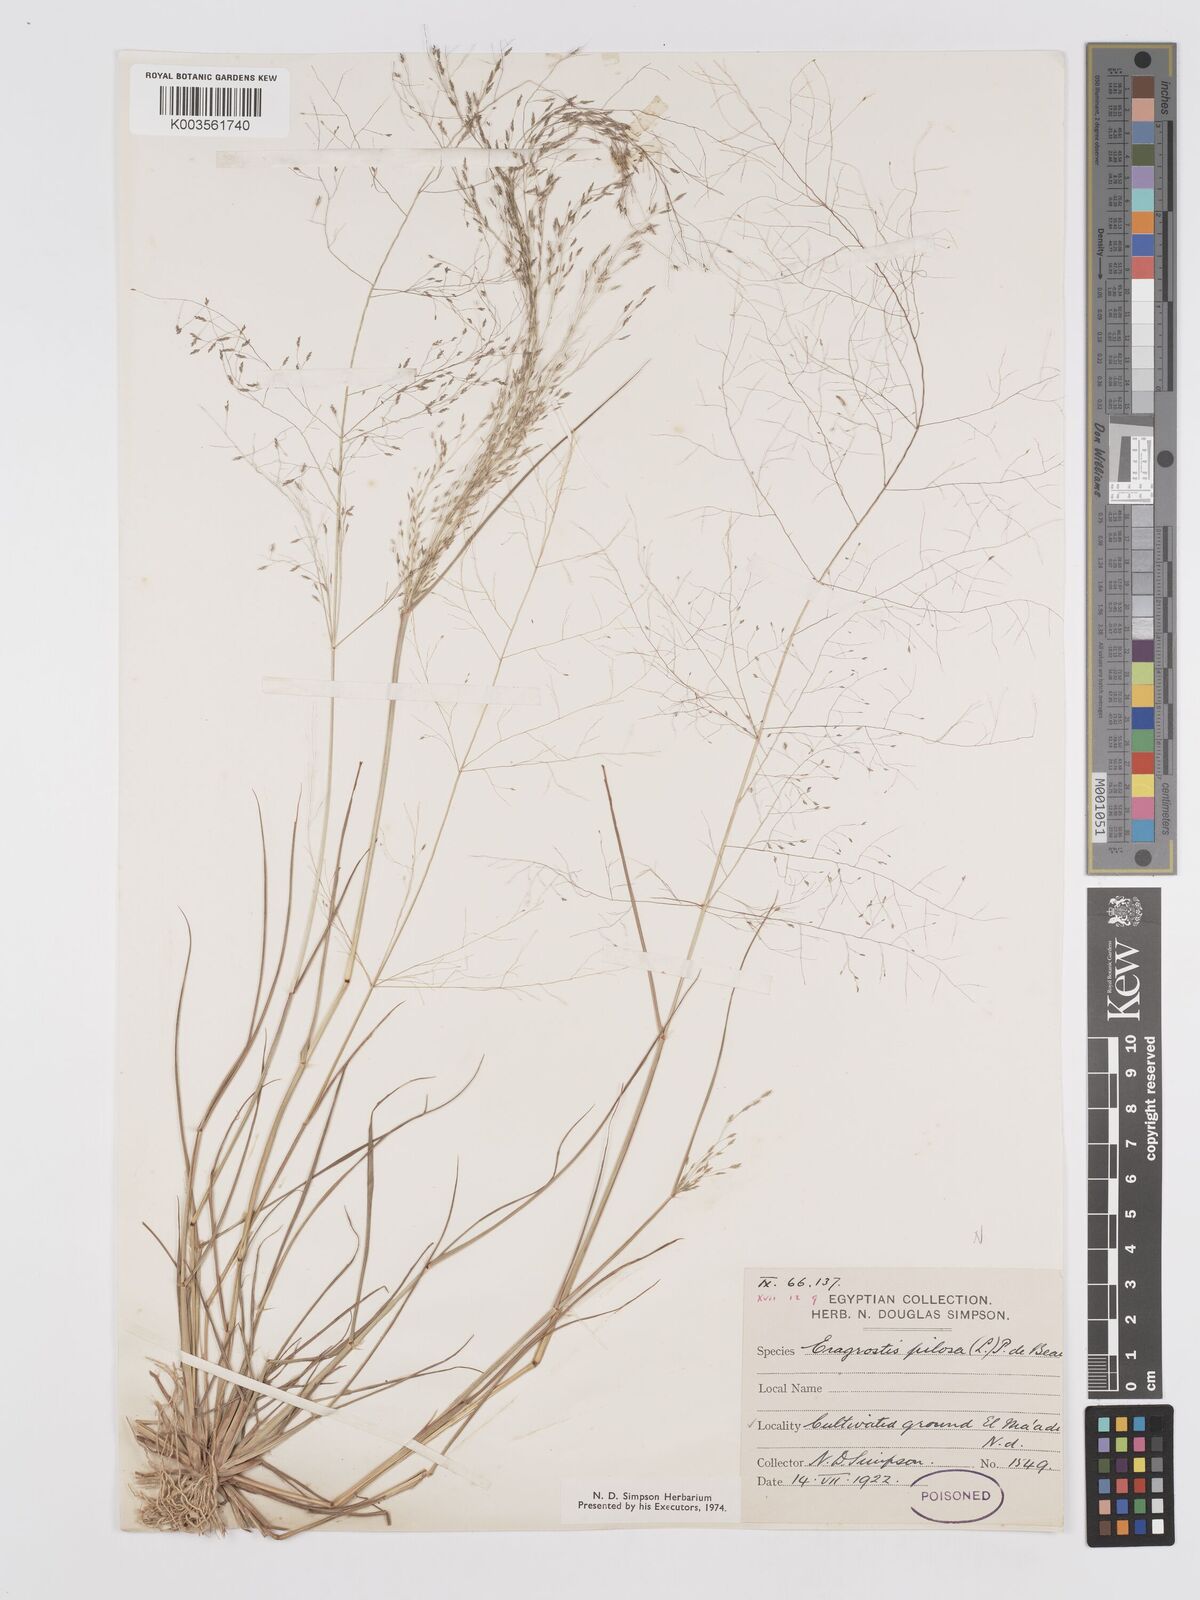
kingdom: Plantae
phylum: Tracheophyta
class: Liliopsida
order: Poales
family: Poaceae
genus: Eragrostis
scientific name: Eragrostis pilosa
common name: Indian lovegrass
